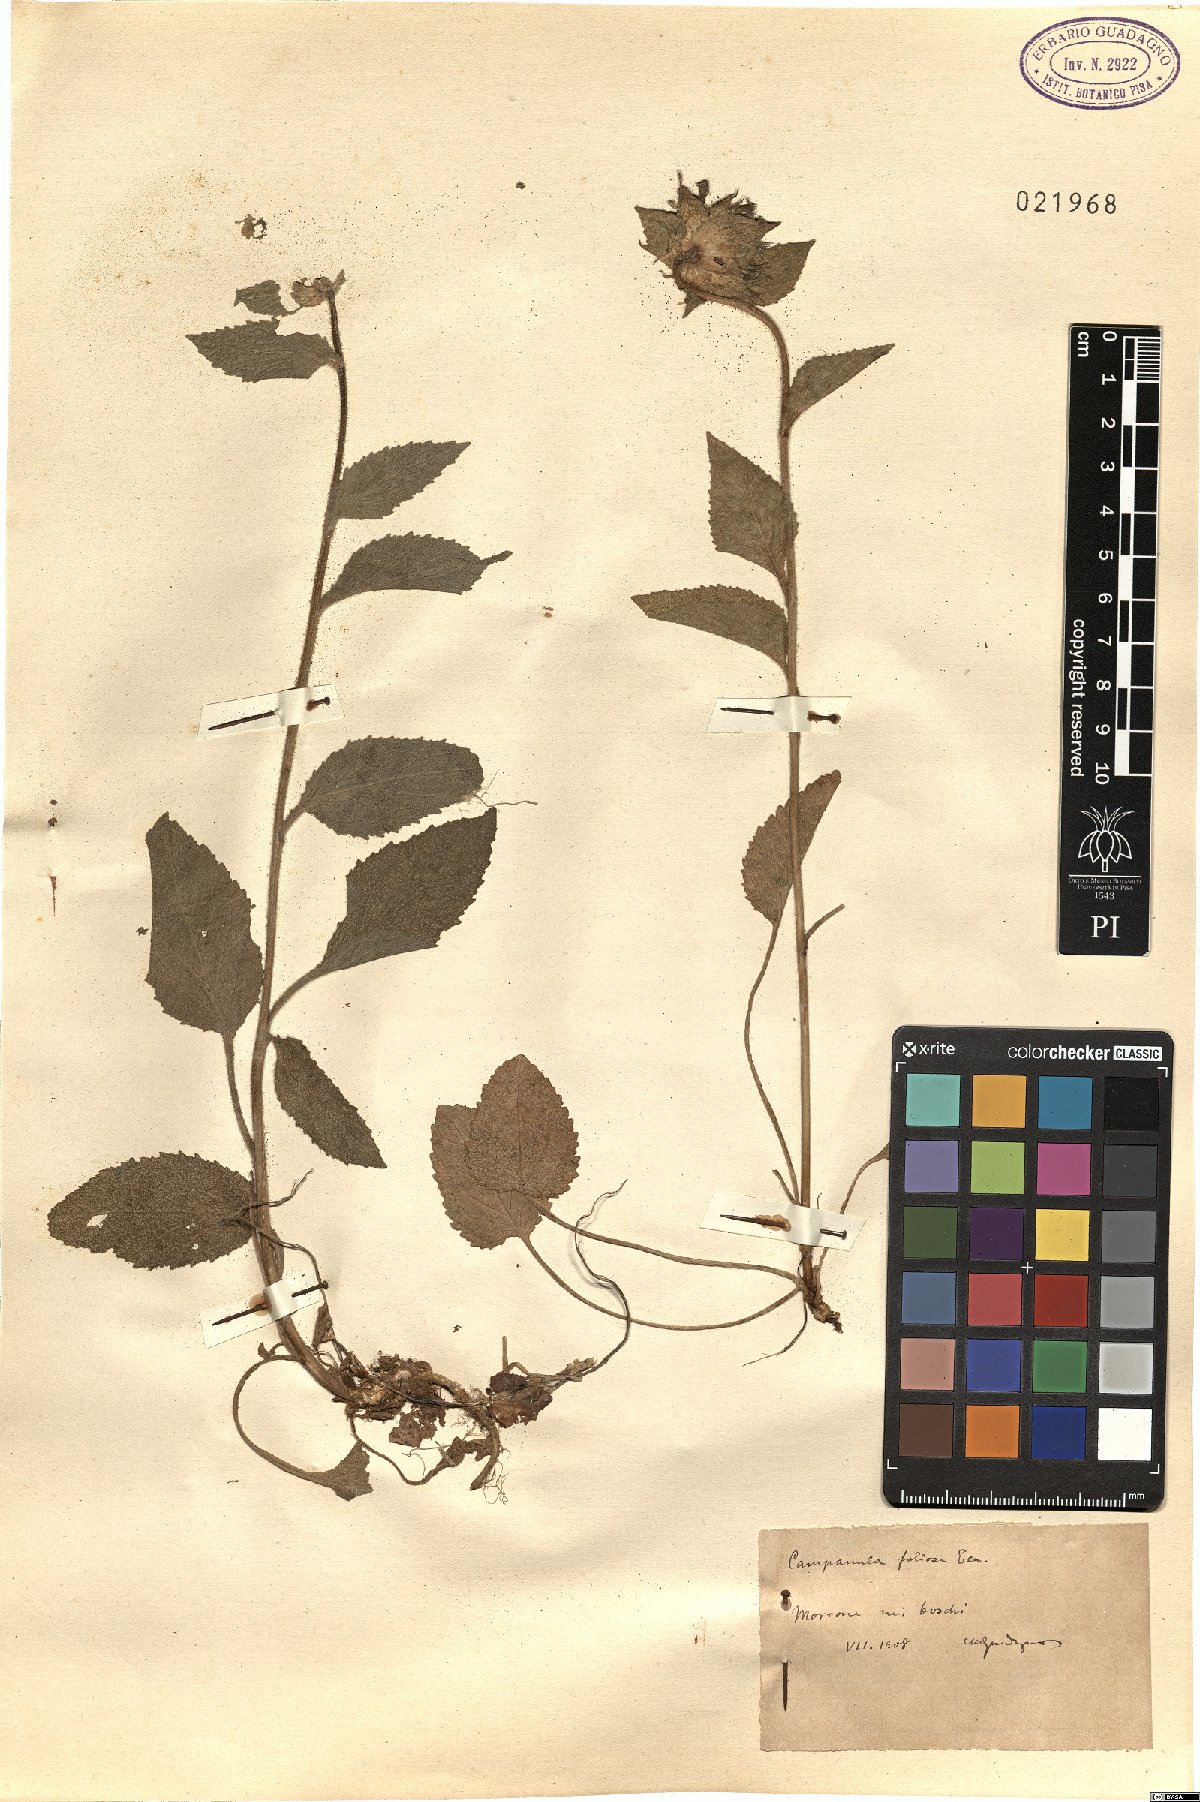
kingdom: Plantae
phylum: Tracheophyta
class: Magnoliopsida
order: Asterales
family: Campanulaceae
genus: Campanula
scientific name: Campanula foliosa
